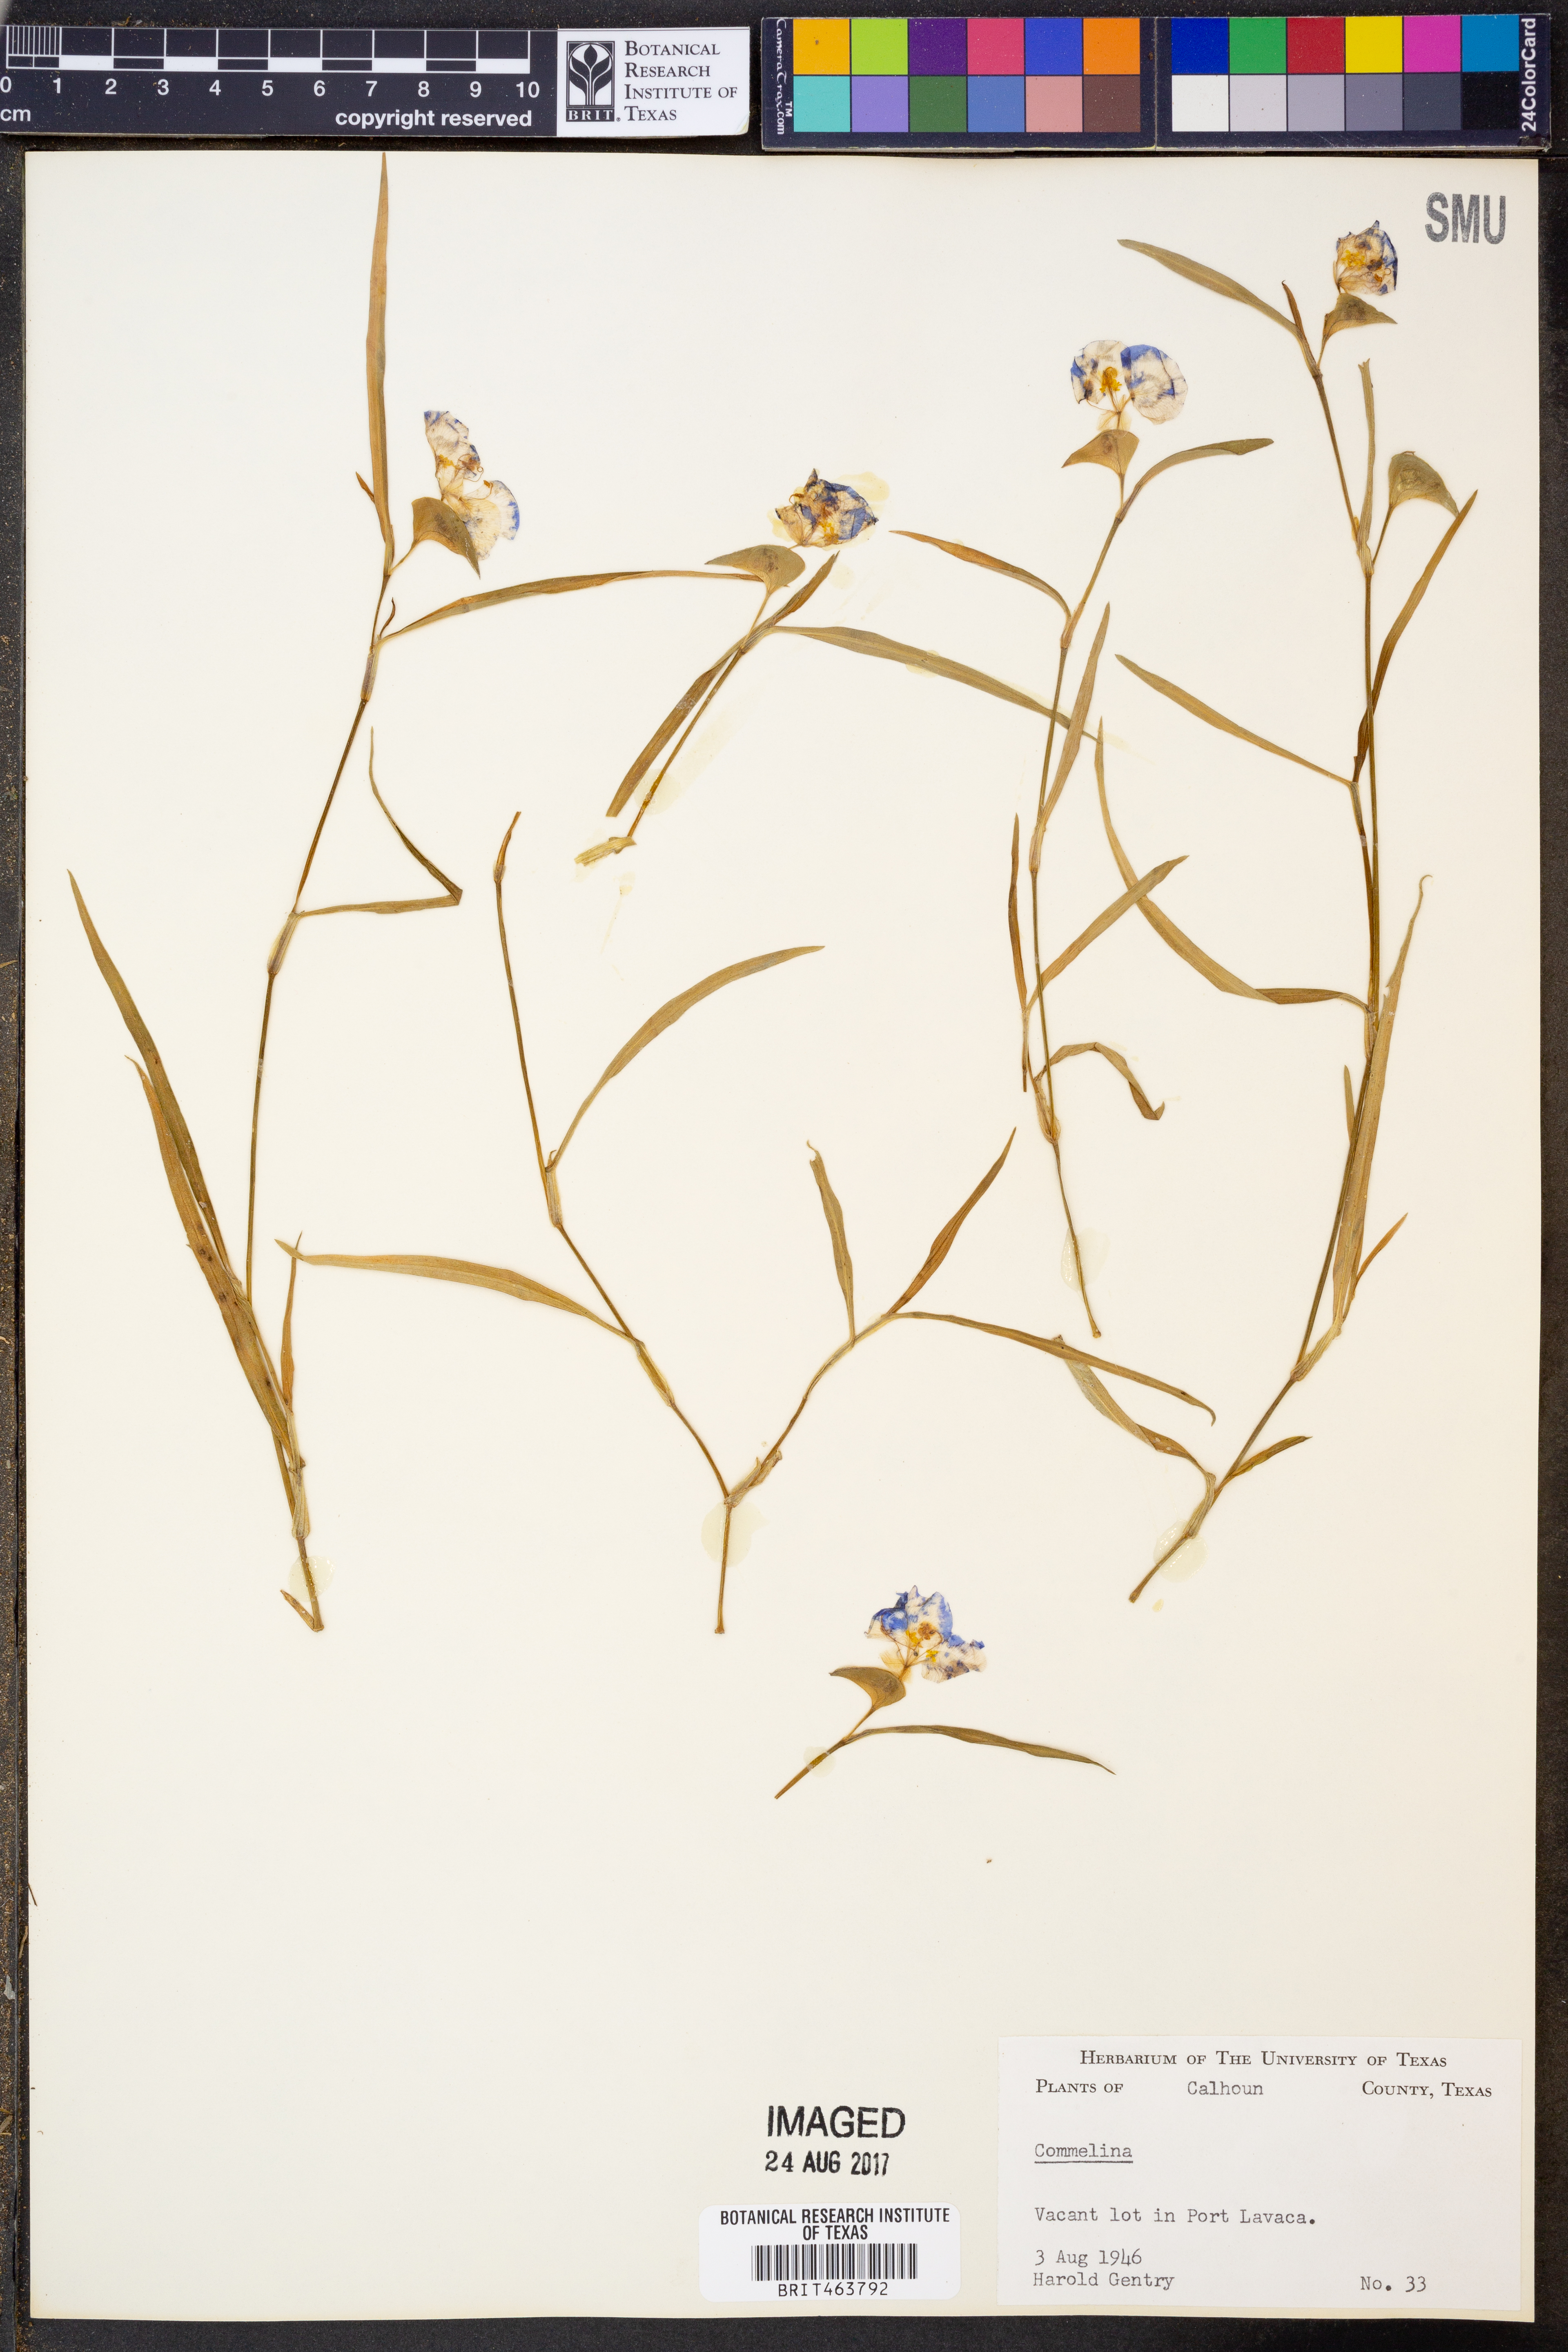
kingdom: Plantae
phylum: Tracheophyta
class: Liliopsida
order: Commelinales
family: Commelinaceae
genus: Commelina
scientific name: Commelina
